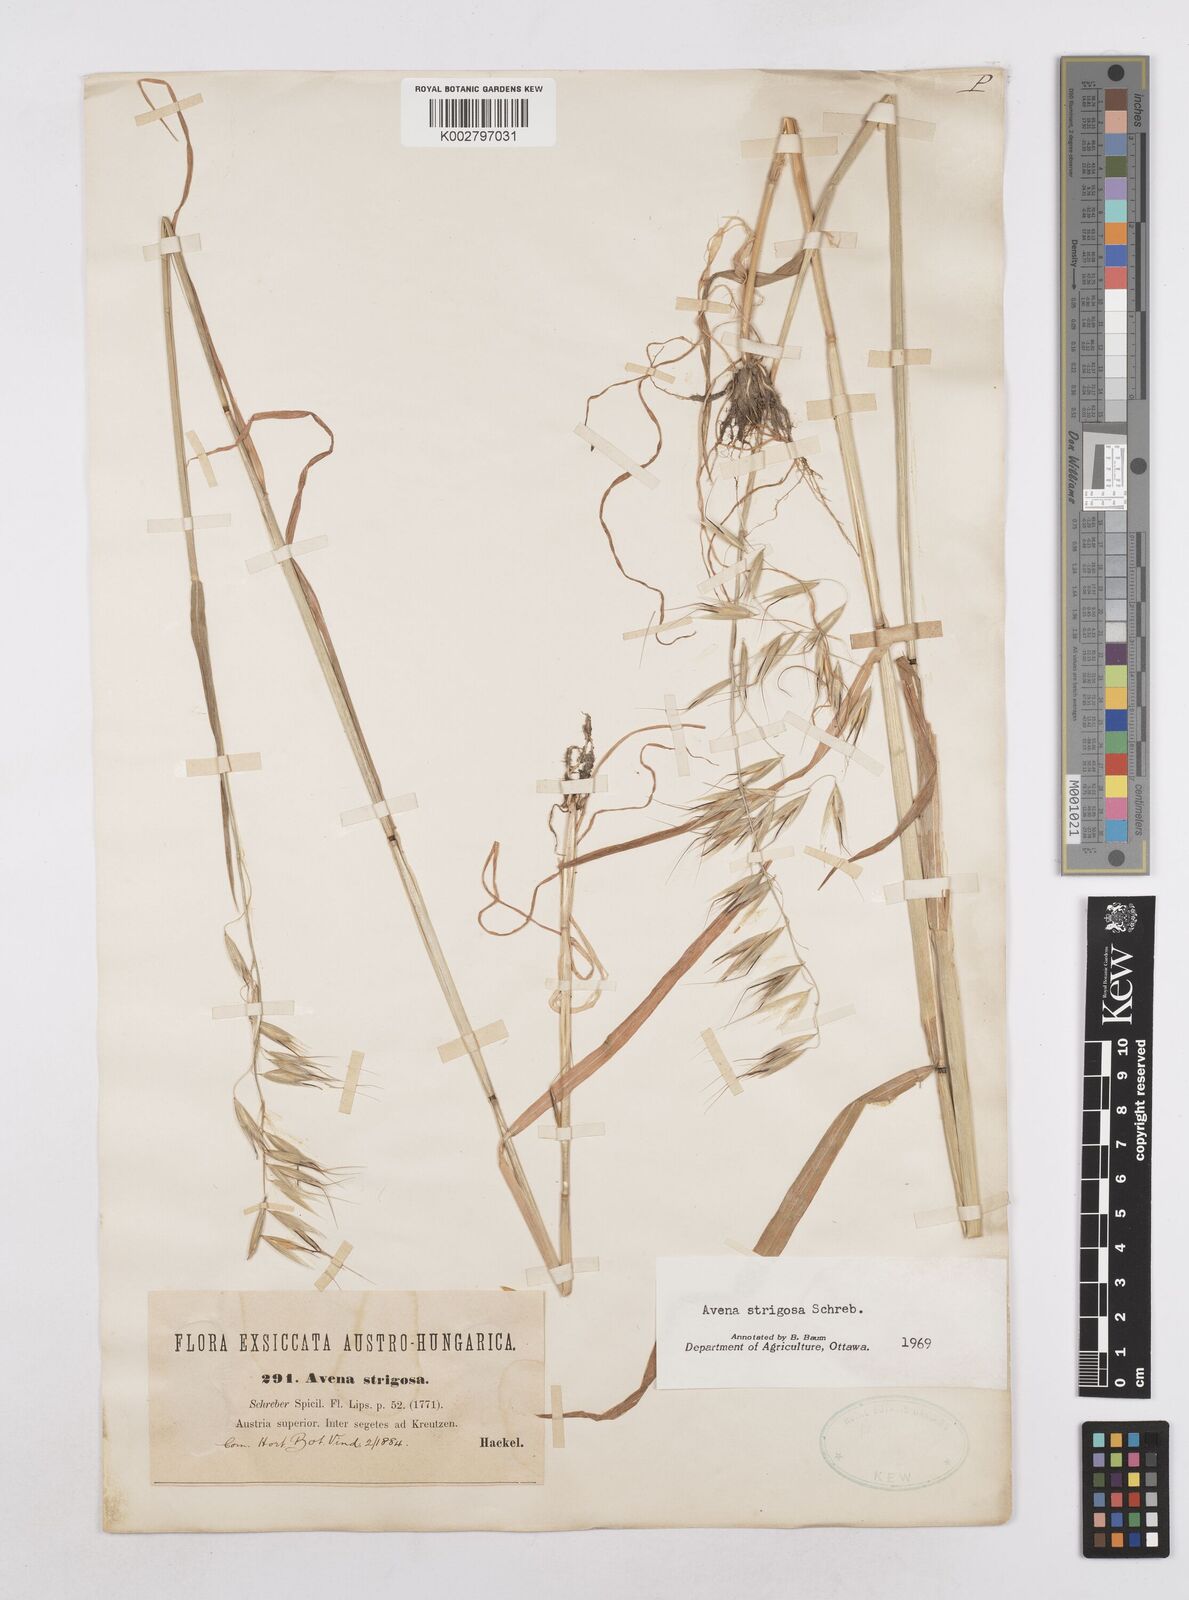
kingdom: Plantae
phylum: Tracheophyta
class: Liliopsida
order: Poales
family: Poaceae
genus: Avena
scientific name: Avena strigosa
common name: Bristle oat
